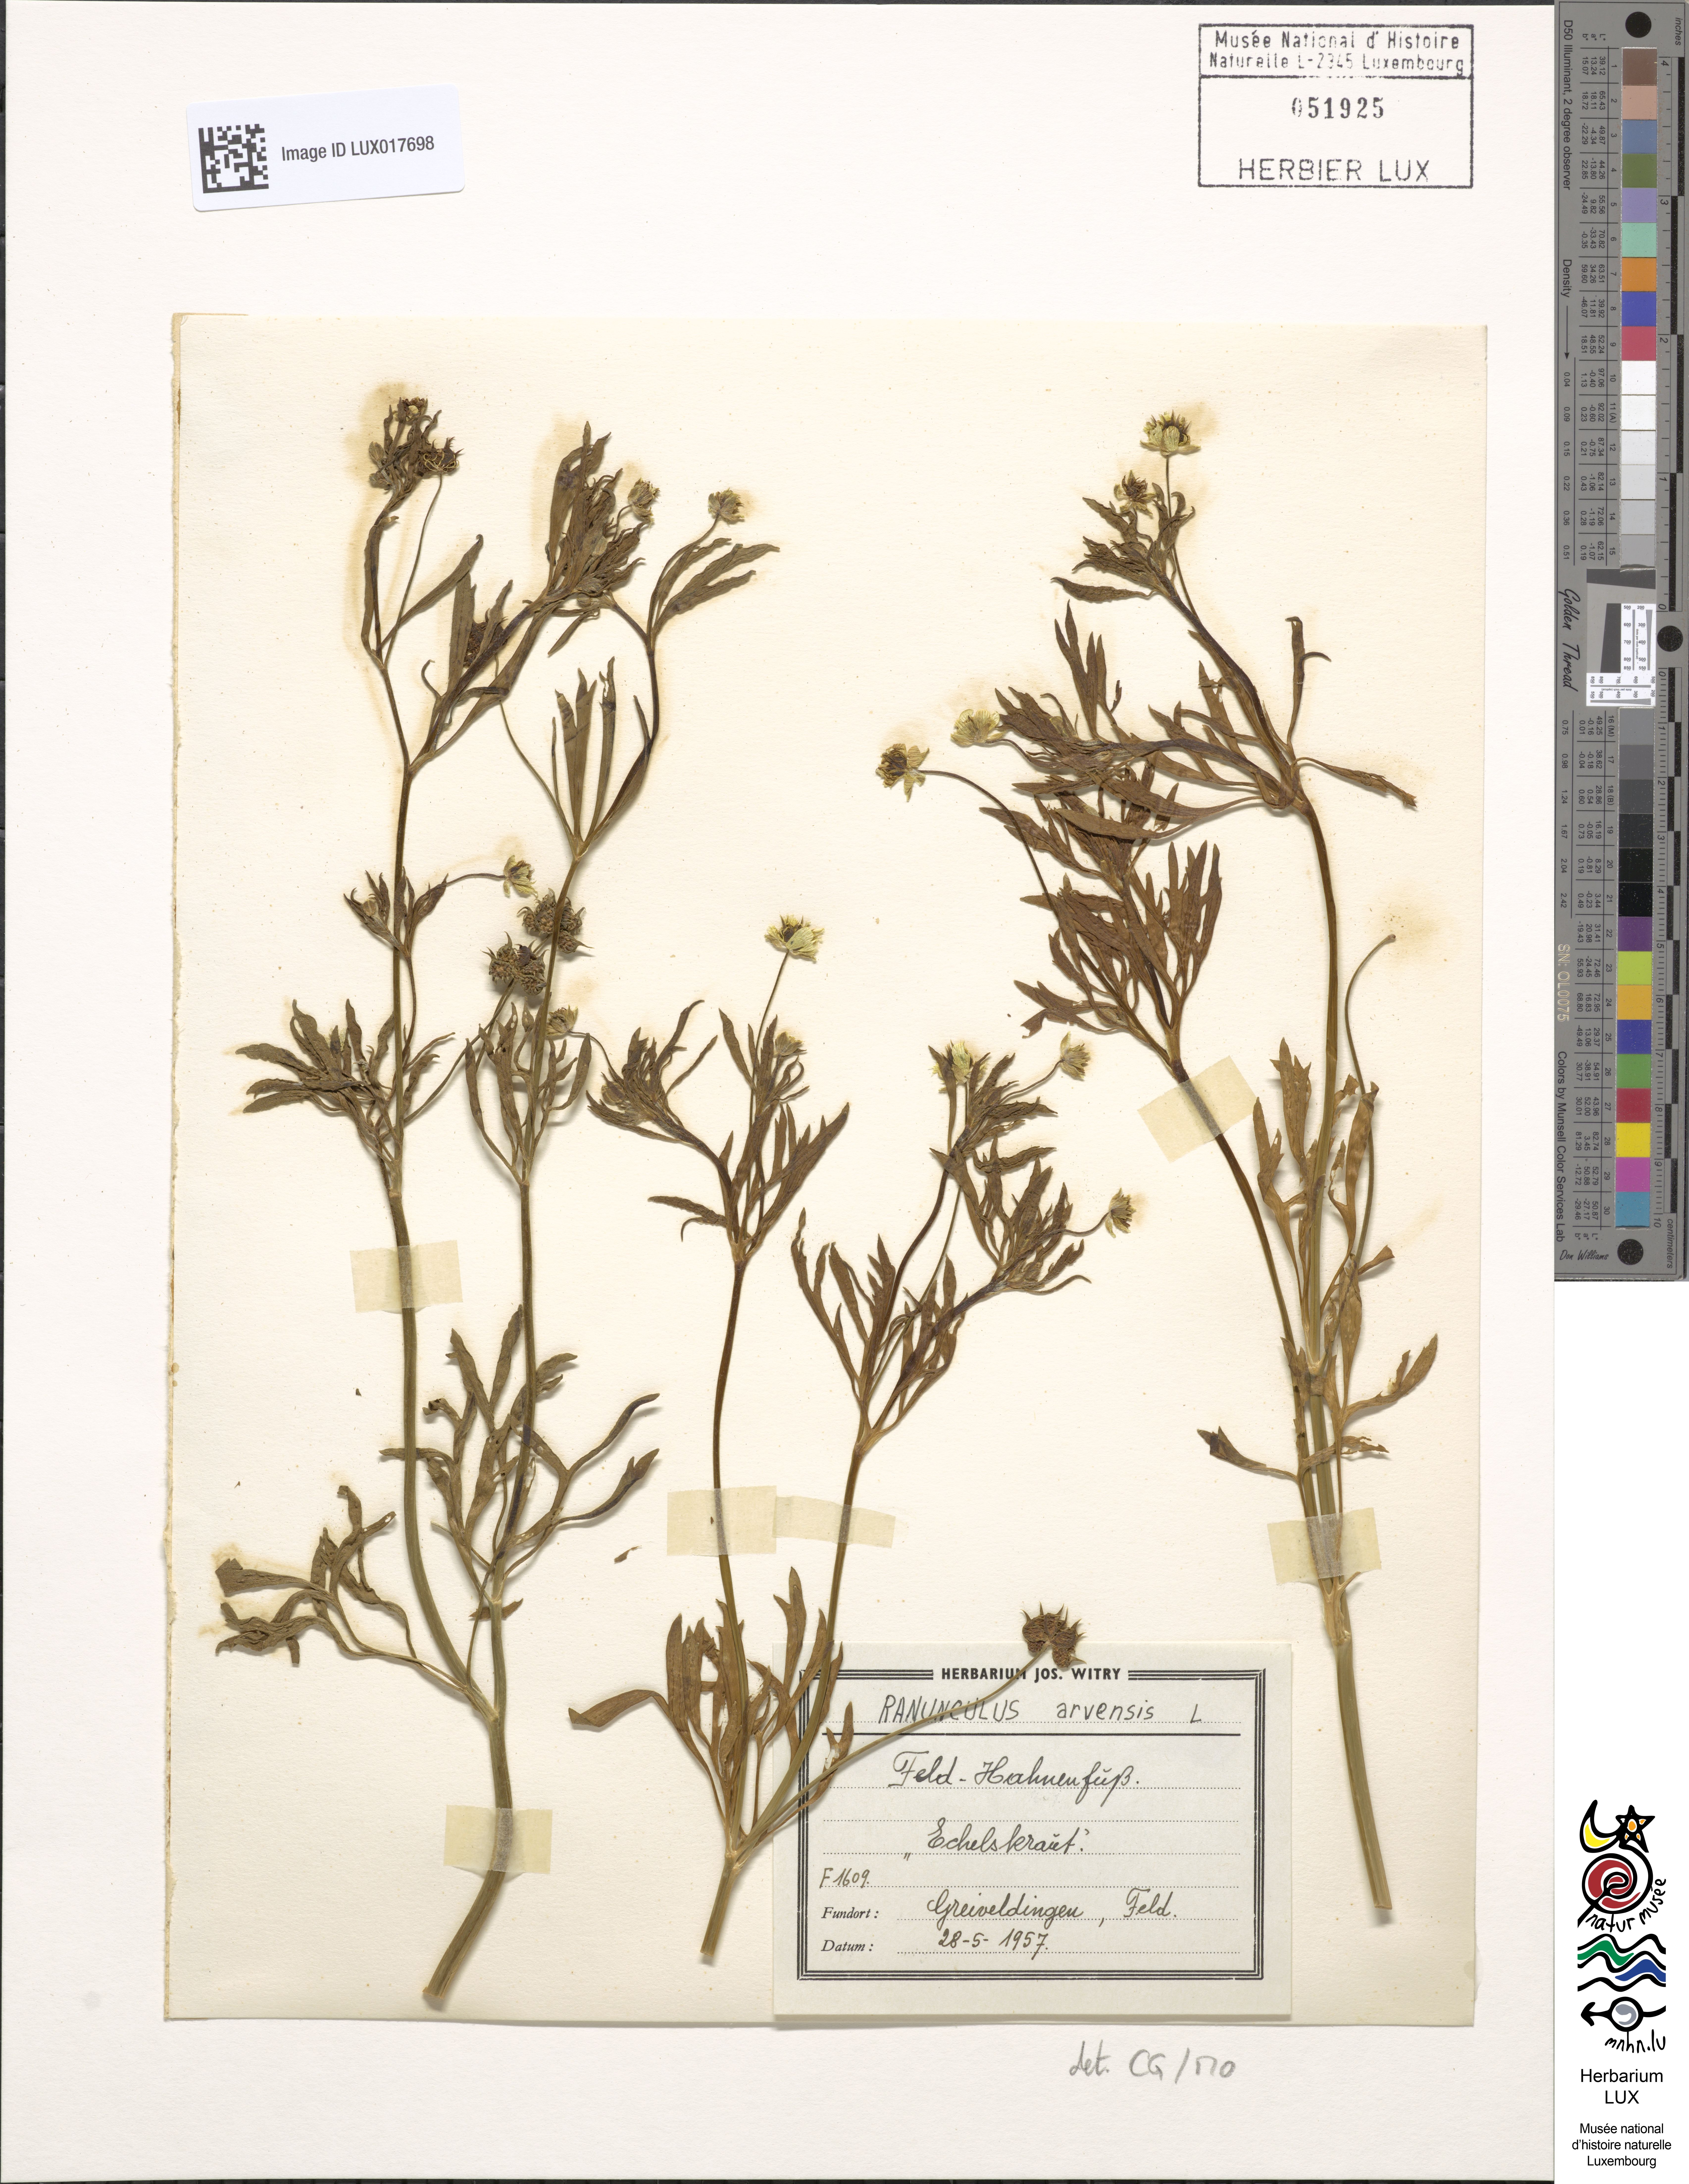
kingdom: Plantae
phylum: Tracheophyta
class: Magnoliopsida
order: Ranunculales
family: Ranunculaceae
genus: Ranunculus
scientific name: Ranunculus arvensis
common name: Corn buttercup
